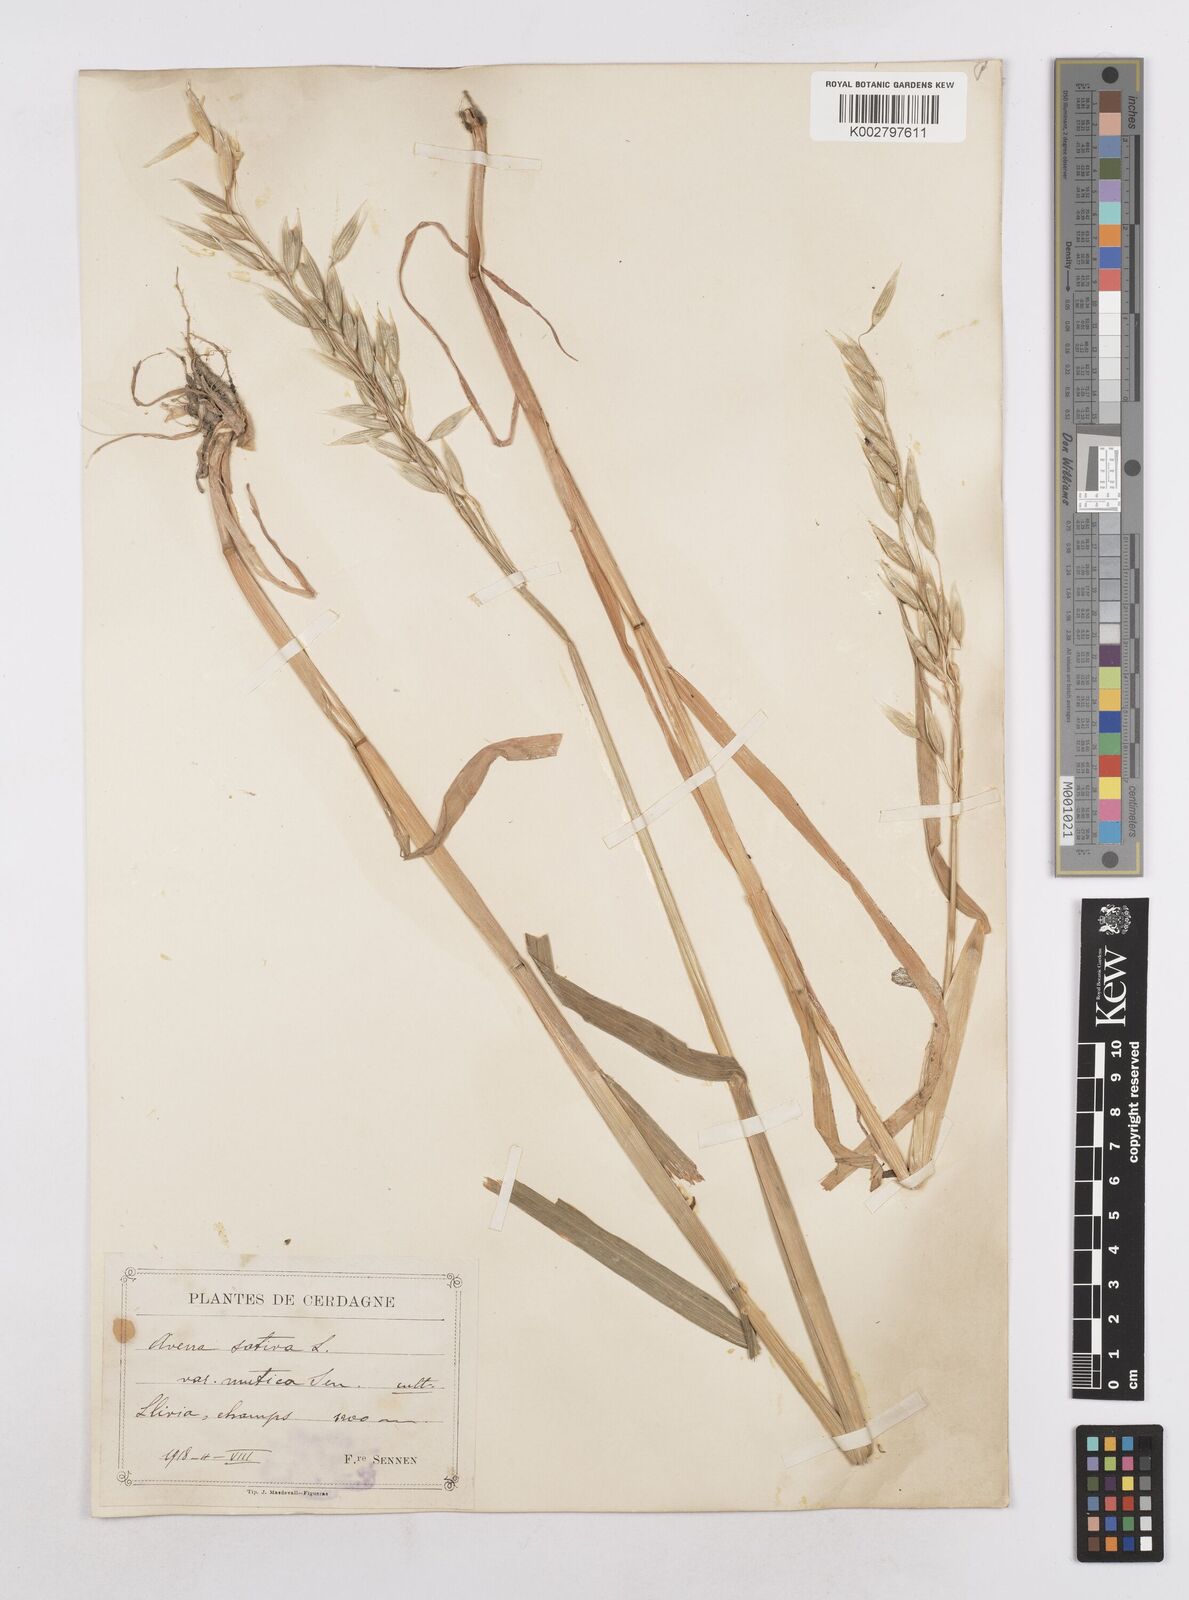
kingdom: Plantae
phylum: Tracheophyta
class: Liliopsida
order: Poales
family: Poaceae
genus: Avena
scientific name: Avena sativa
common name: Oat
